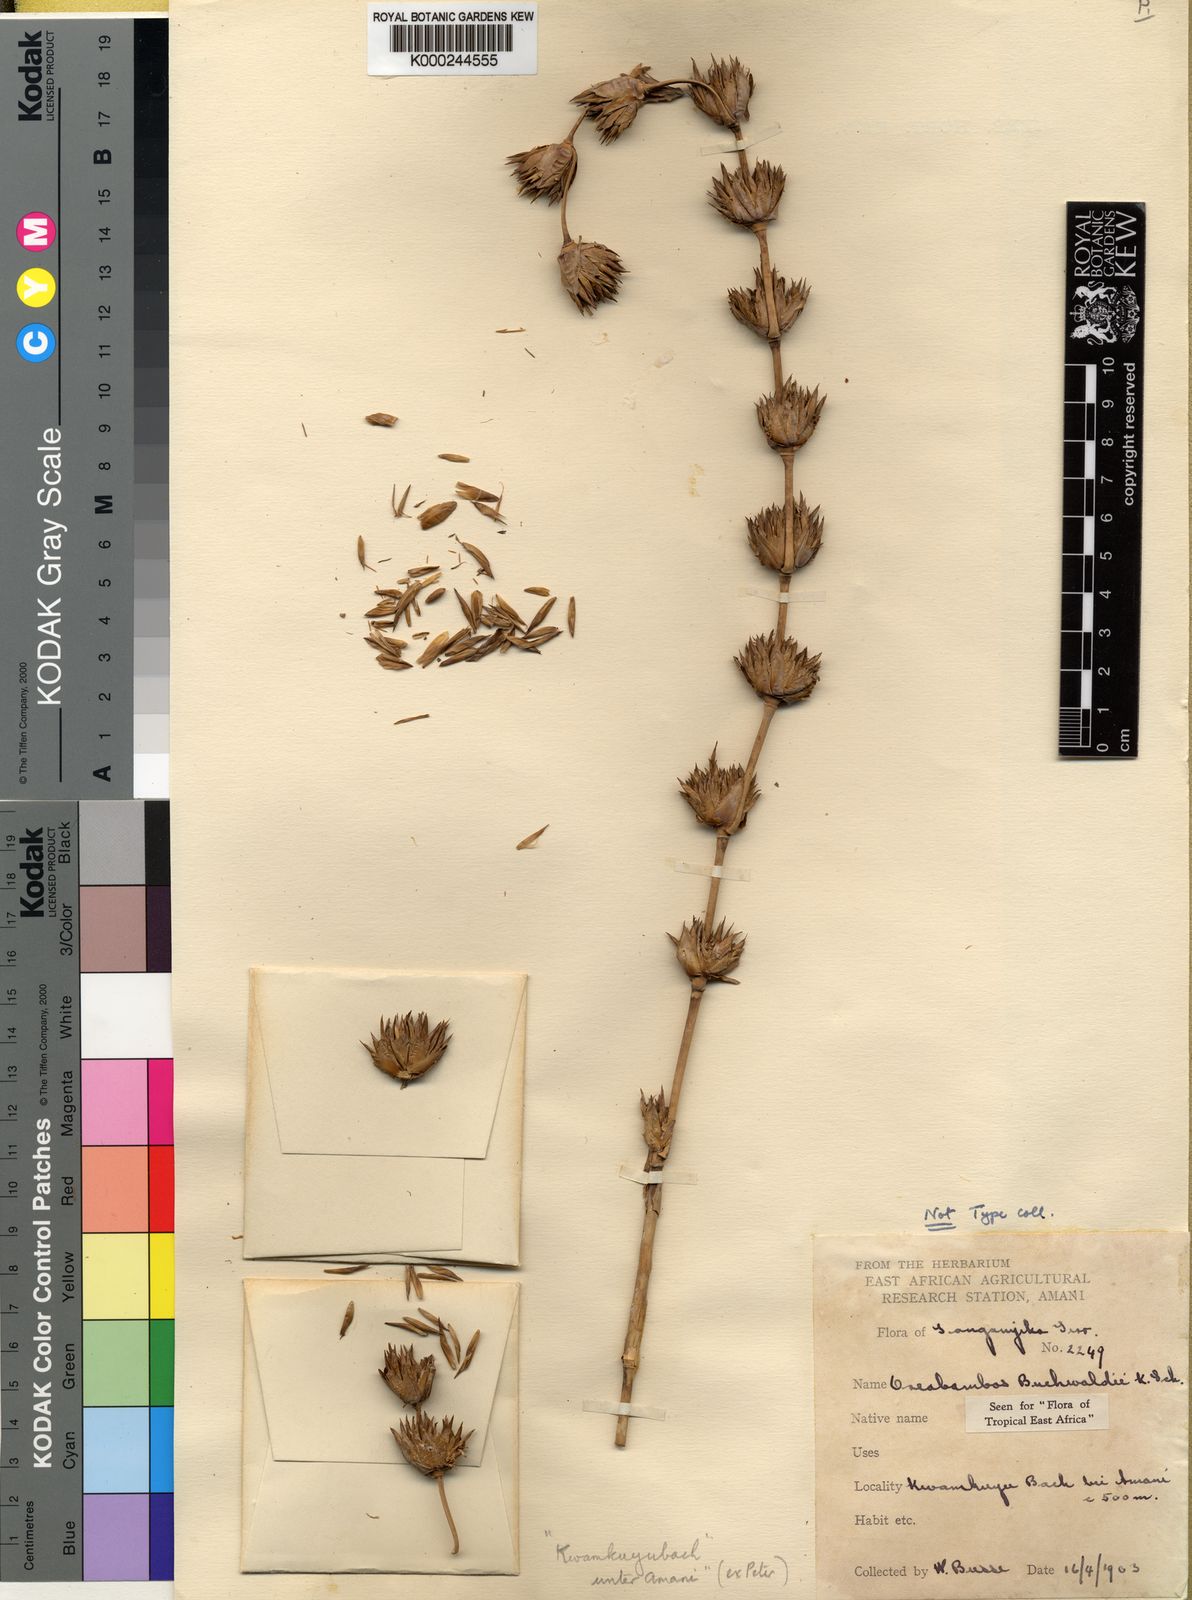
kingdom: Plantae
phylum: Tracheophyta
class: Liliopsida
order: Poales
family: Poaceae
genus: Oreobambos
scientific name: Oreobambos buchwaldii
